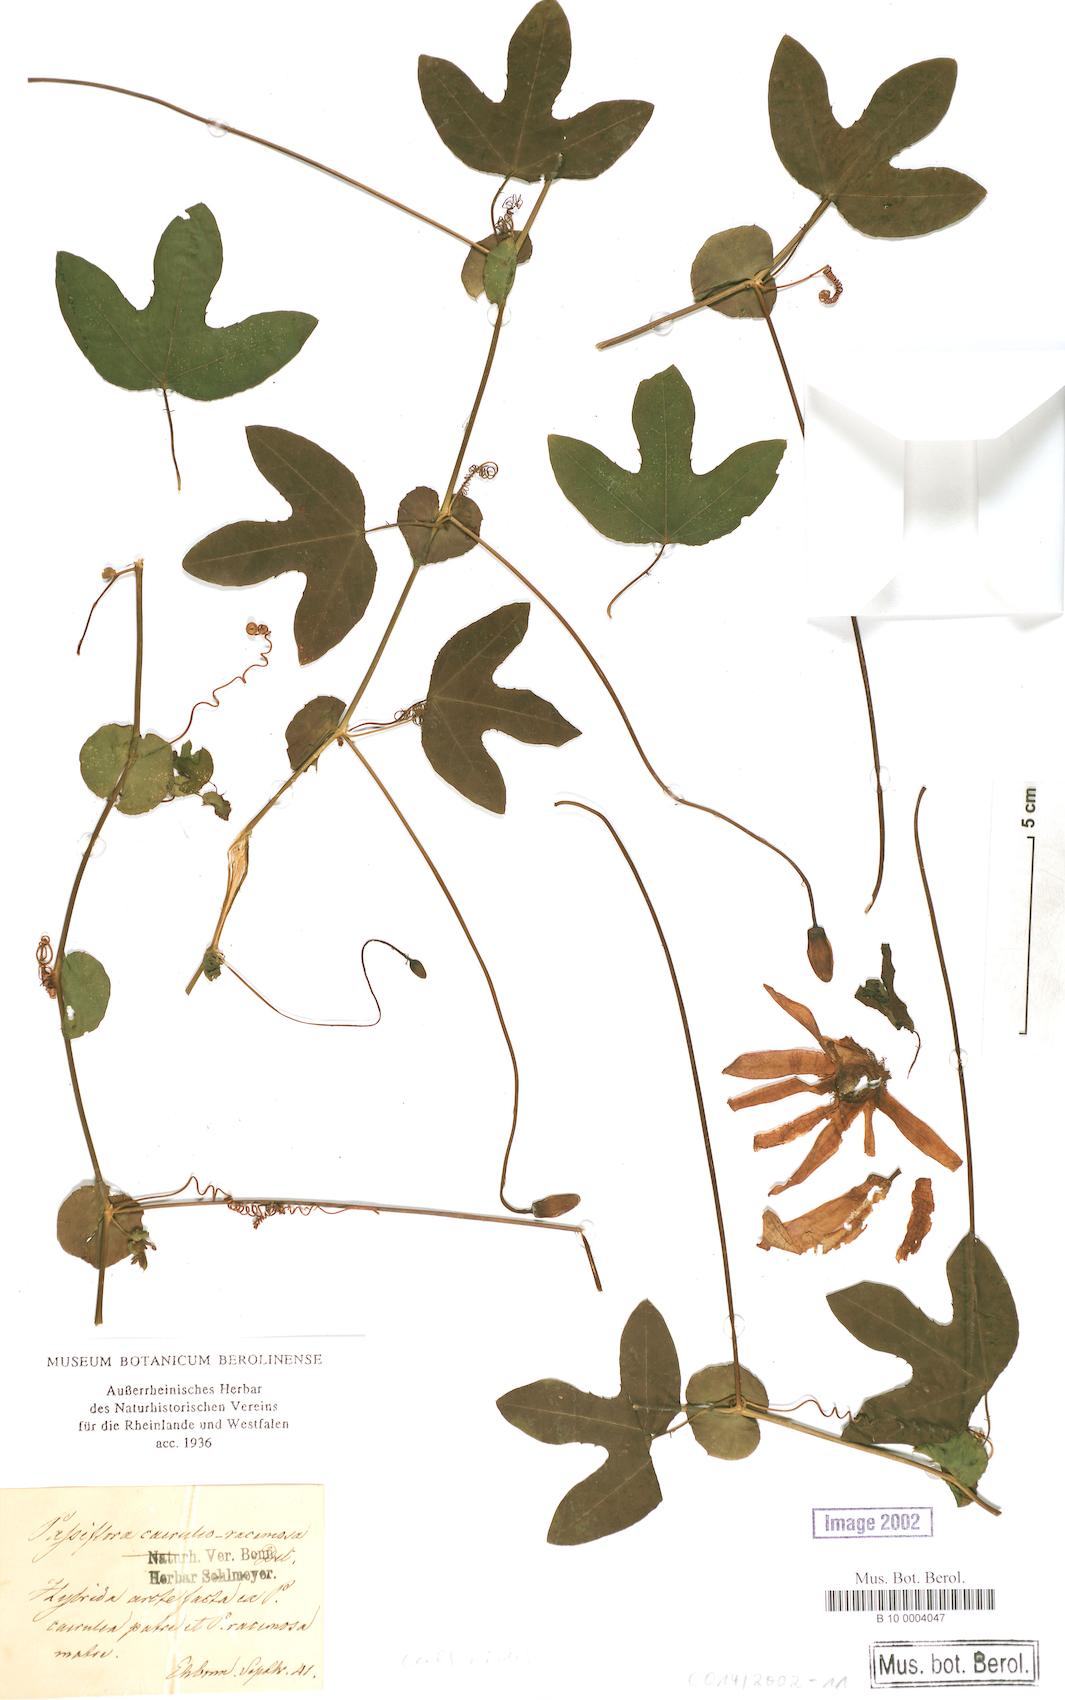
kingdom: Plantae
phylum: Tracheophyta
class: Magnoliopsida
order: Malpighiales
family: Passifloraceae
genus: Passiflora
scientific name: Passiflora
